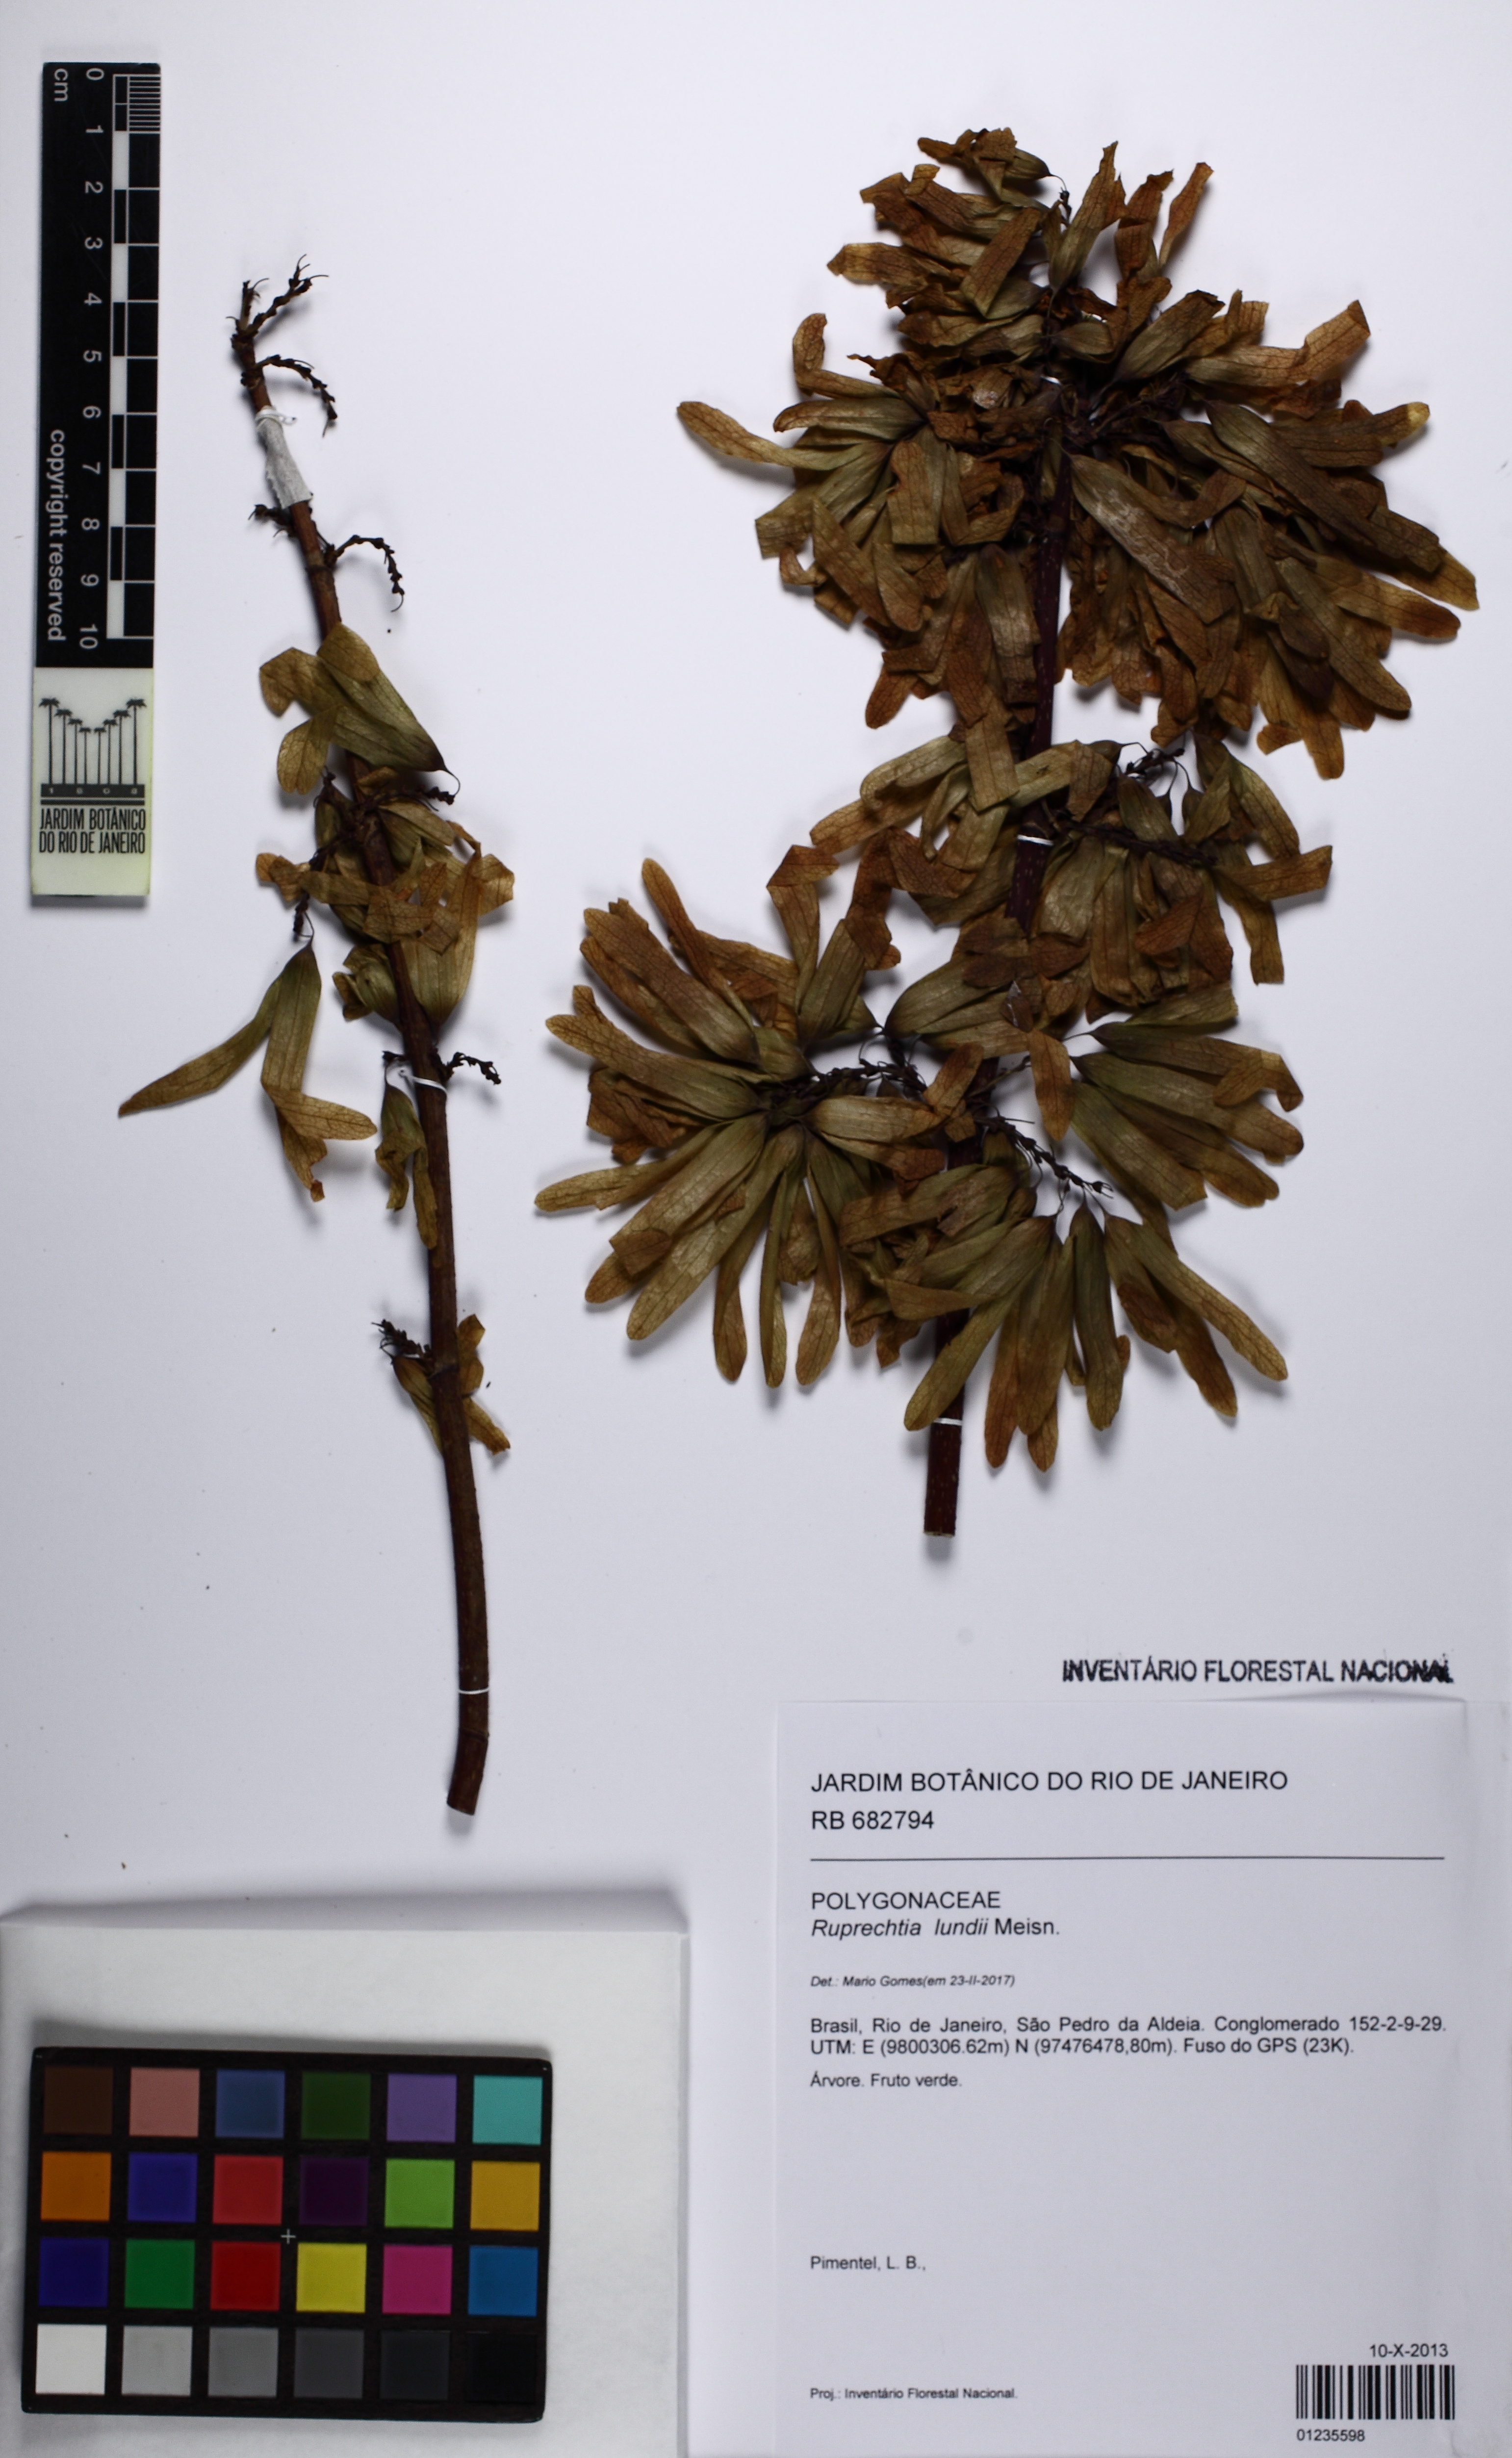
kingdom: Plantae
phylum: Tracheophyta
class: Magnoliopsida
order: Caryophyllales
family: Polygonaceae
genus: Ruprechtia
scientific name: Ruprechtia lundii
